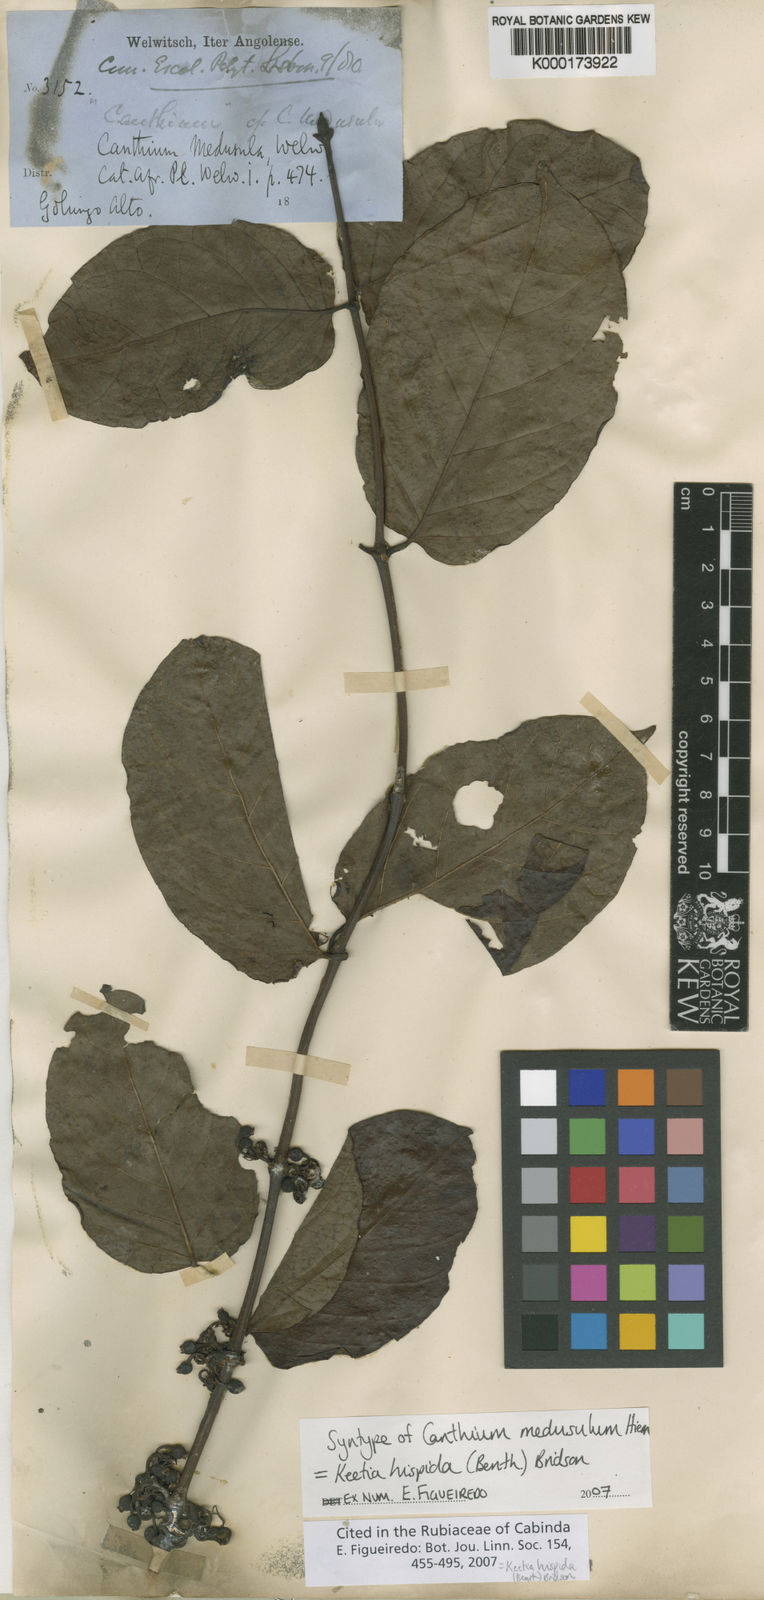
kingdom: Plantae
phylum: Tracheophyta
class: Magnoliopsida
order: Gentianales
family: Rubiaceae
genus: Keetia
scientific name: Keetia hispida
